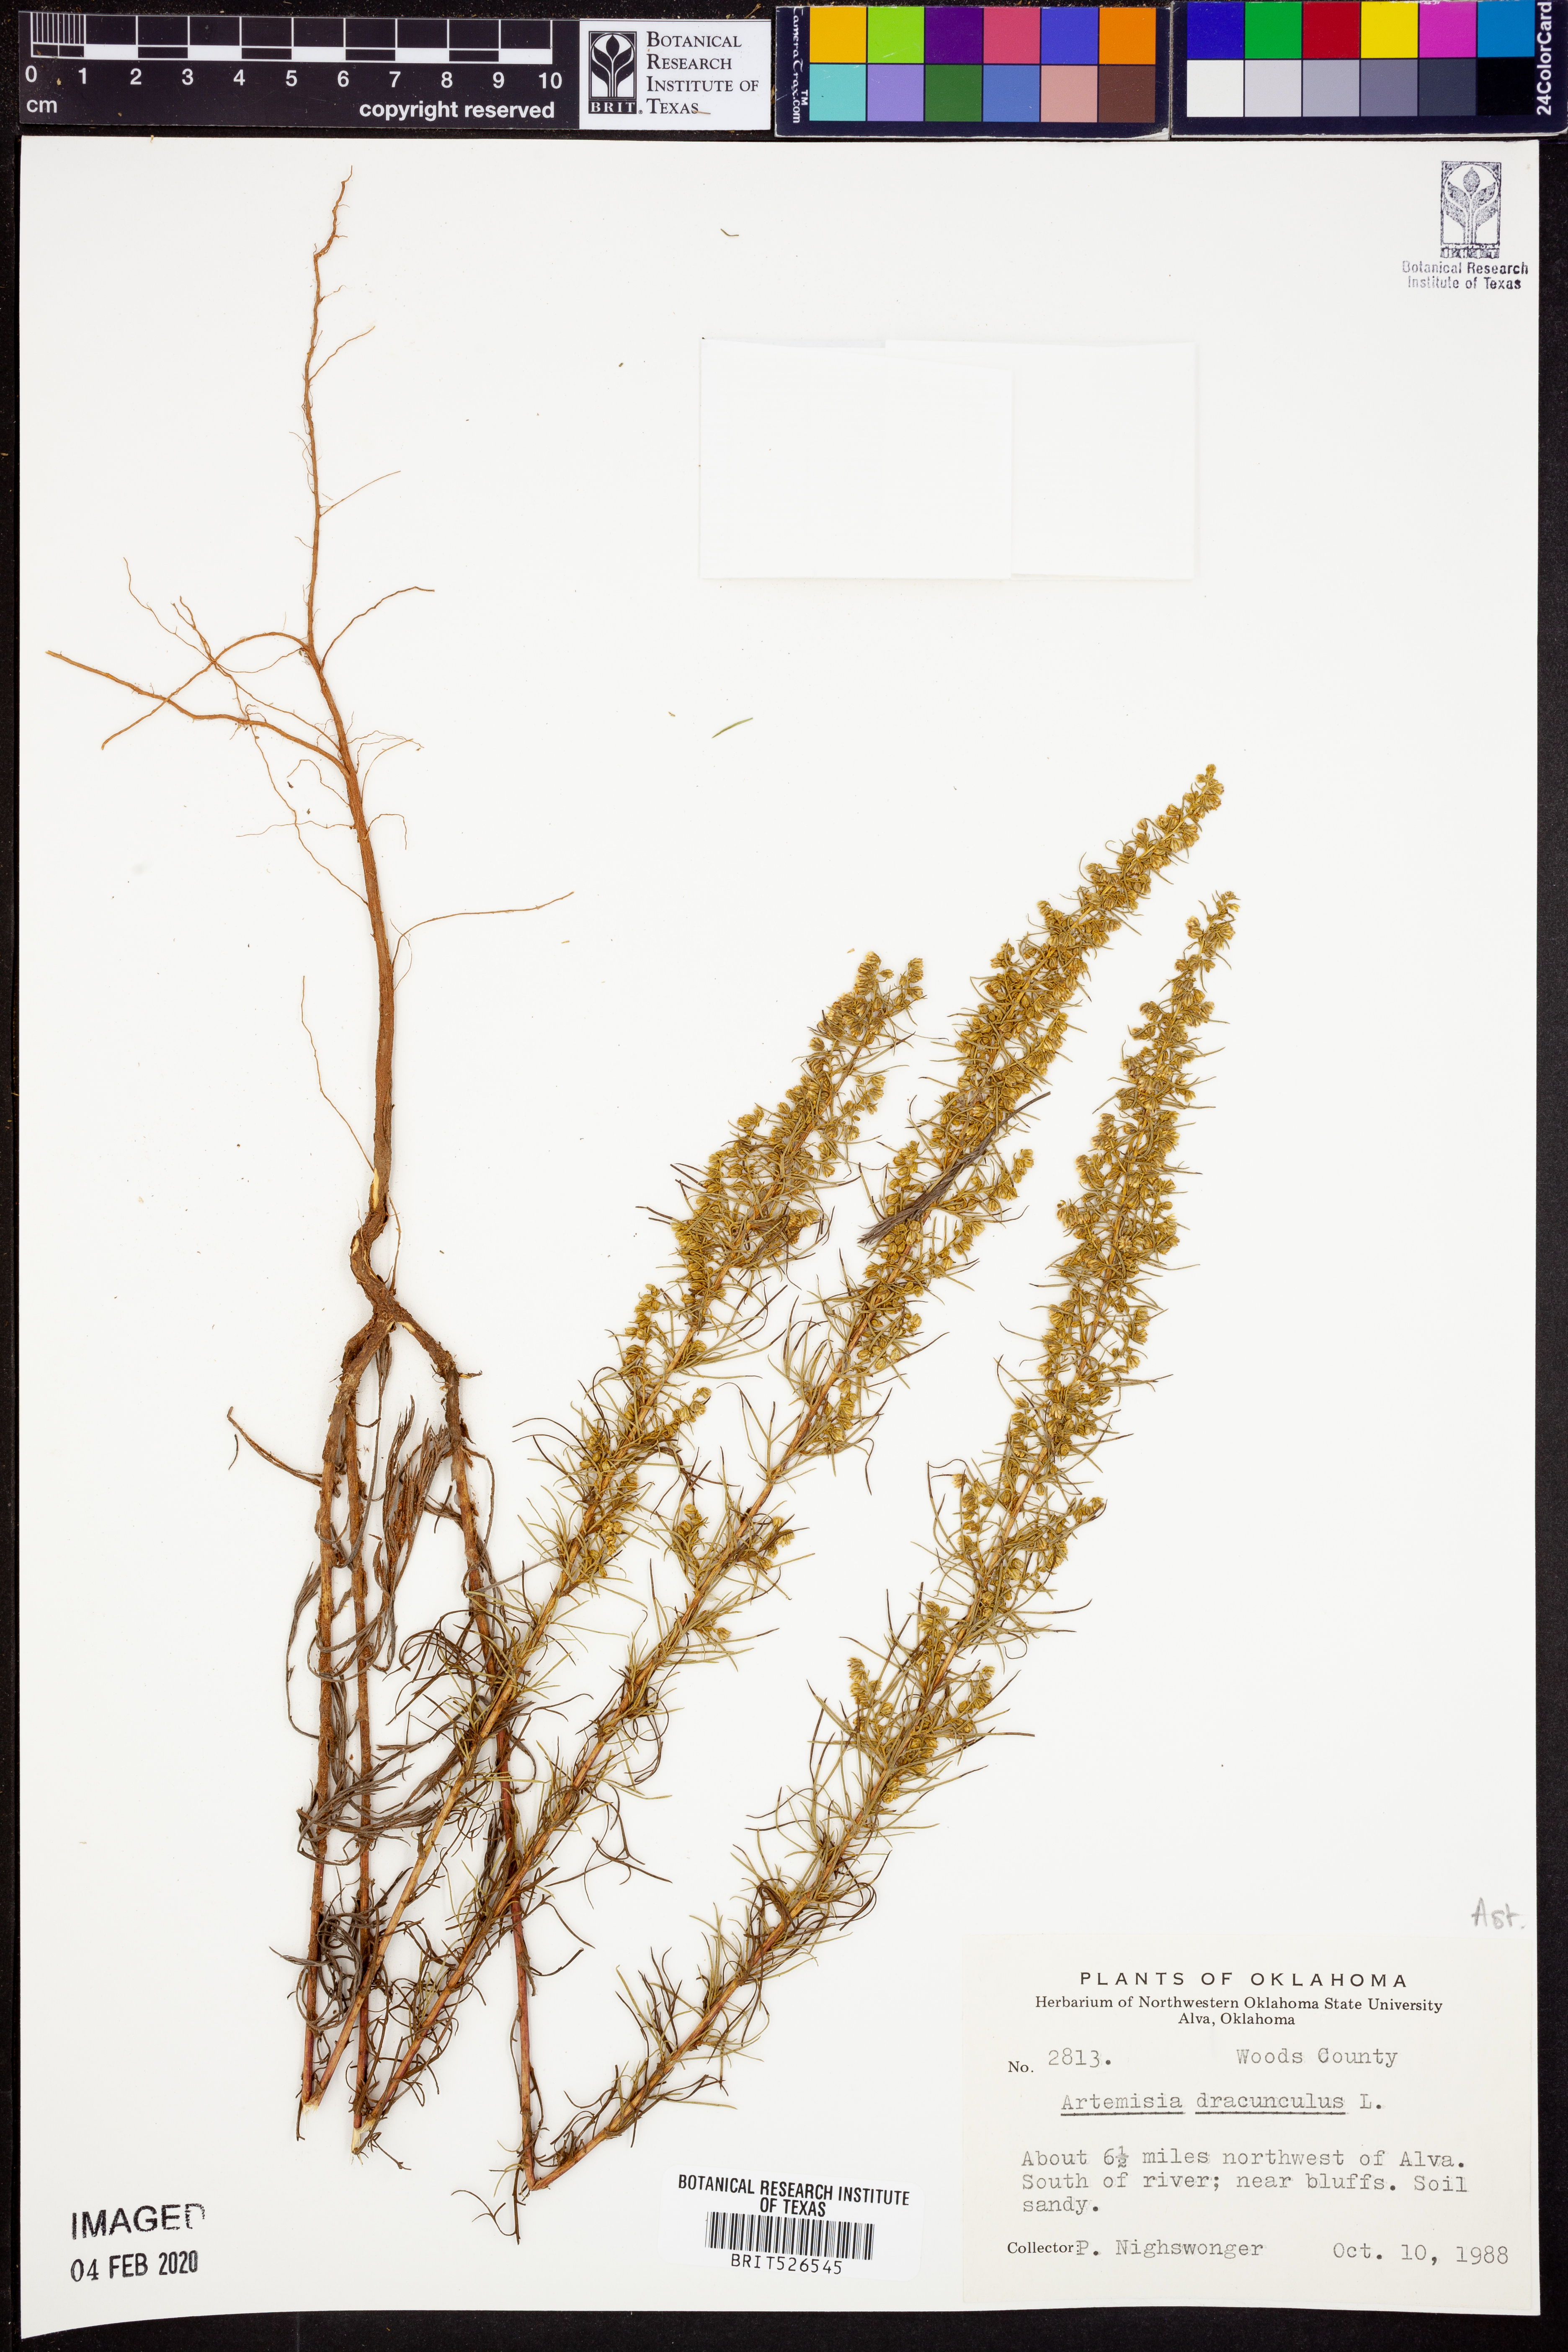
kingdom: Plantae
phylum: Tracheophyta
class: Magnoliopsida
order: Asterales
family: Asteraceae
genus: Artemisia
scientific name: Artemisia dracunculus
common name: Tarragon
